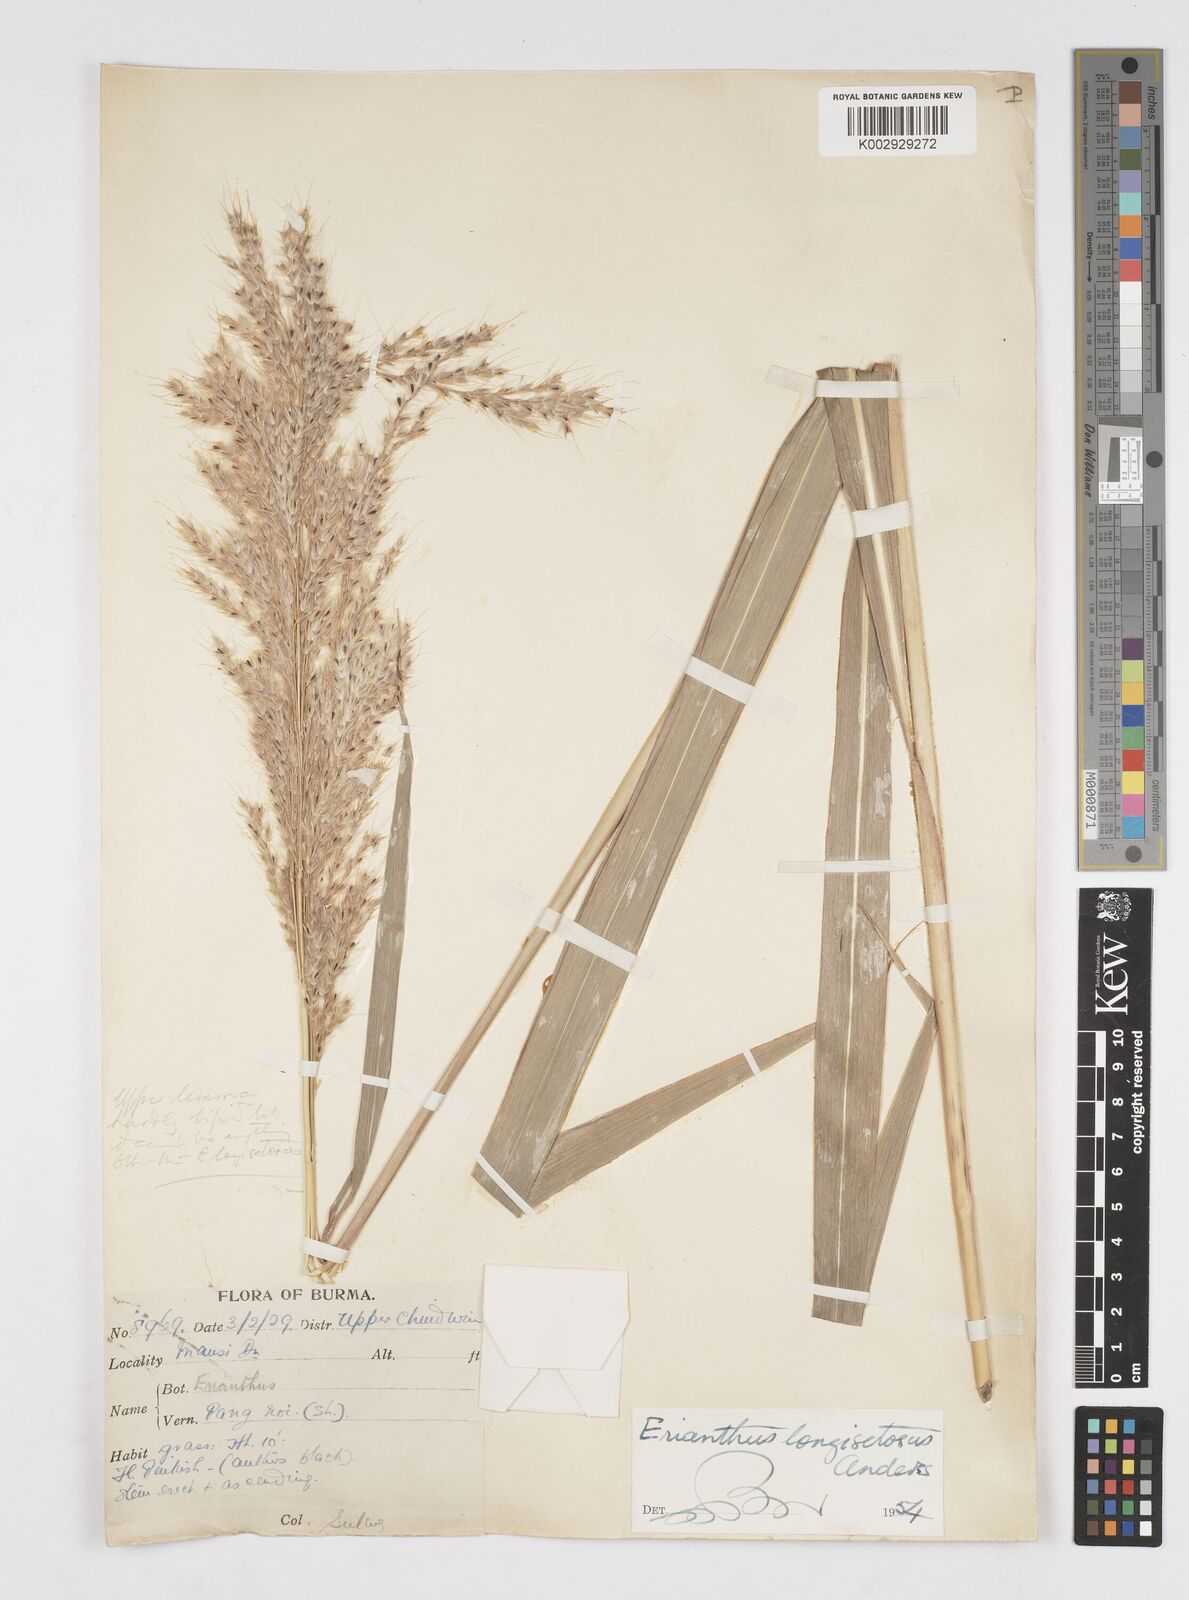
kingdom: Plantae
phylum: Tracheophyta
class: Liliopsida
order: Poales
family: Poaceae
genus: Saccharum
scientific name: Saccharum longesetosum
